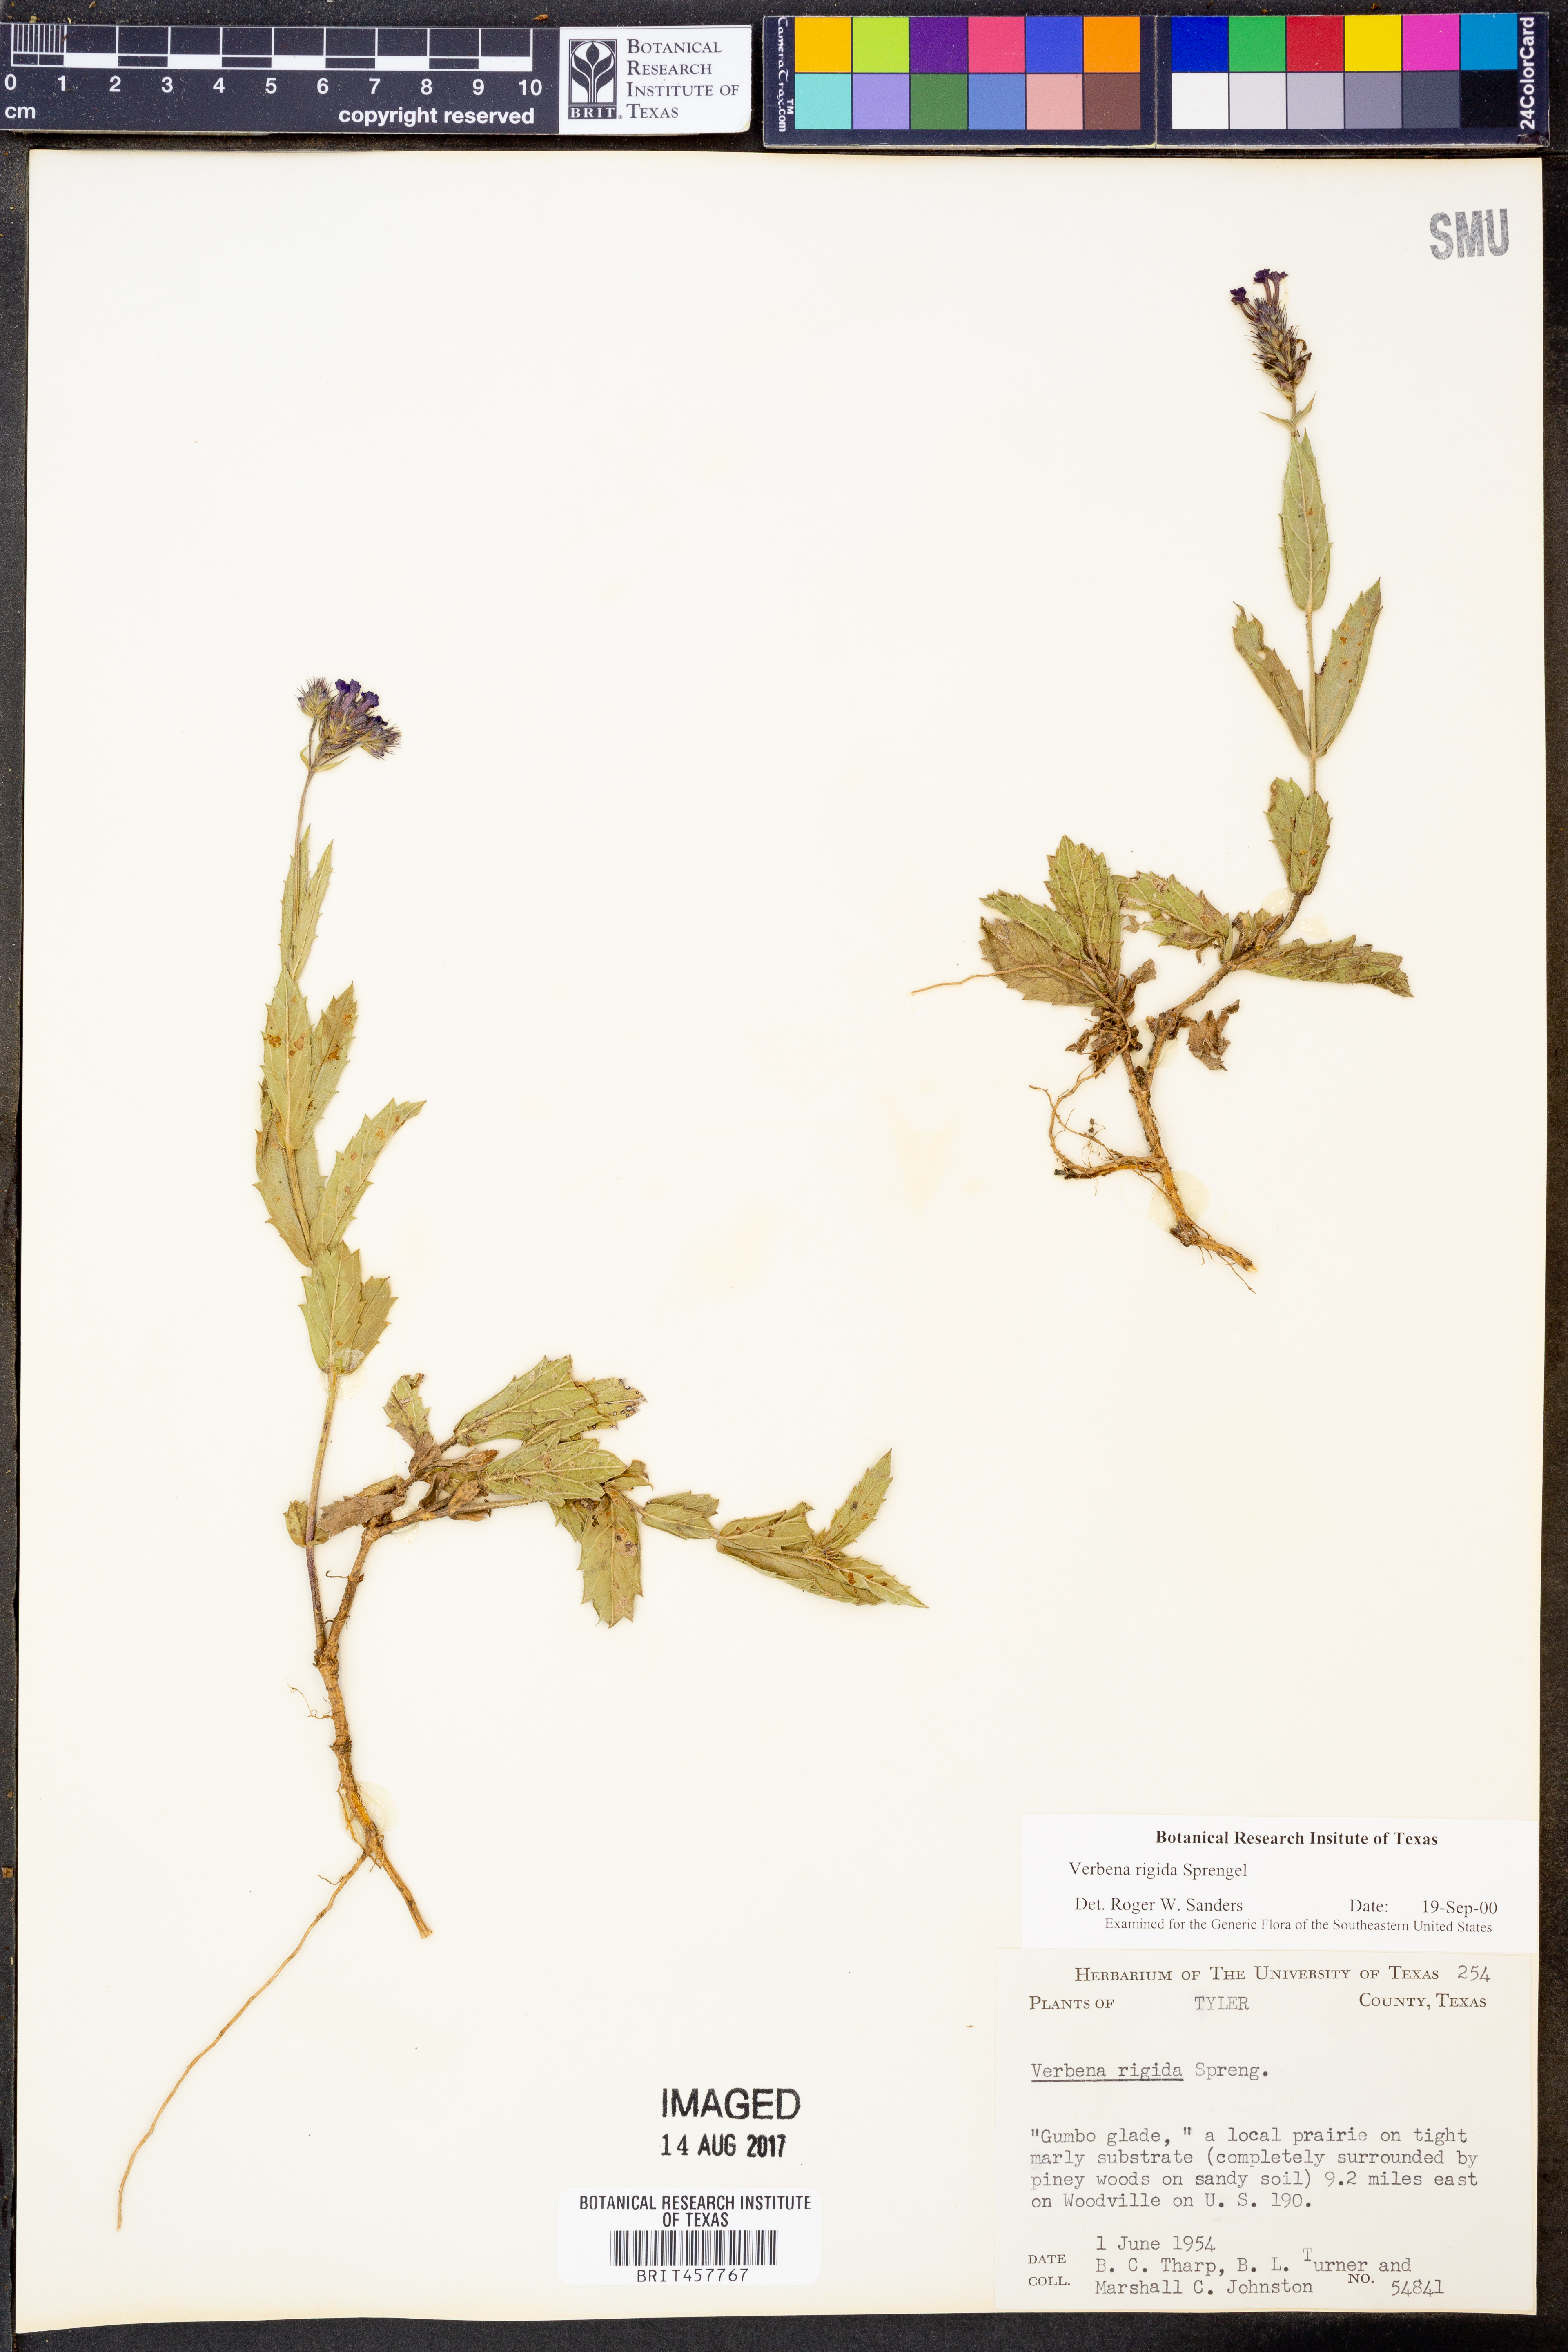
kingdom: Plantae
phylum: Tracheophyta
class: Magnoliopsida
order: Lamiales
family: Verbenaceae
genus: Verbena
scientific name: Verbena rigida
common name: Slender vervain
